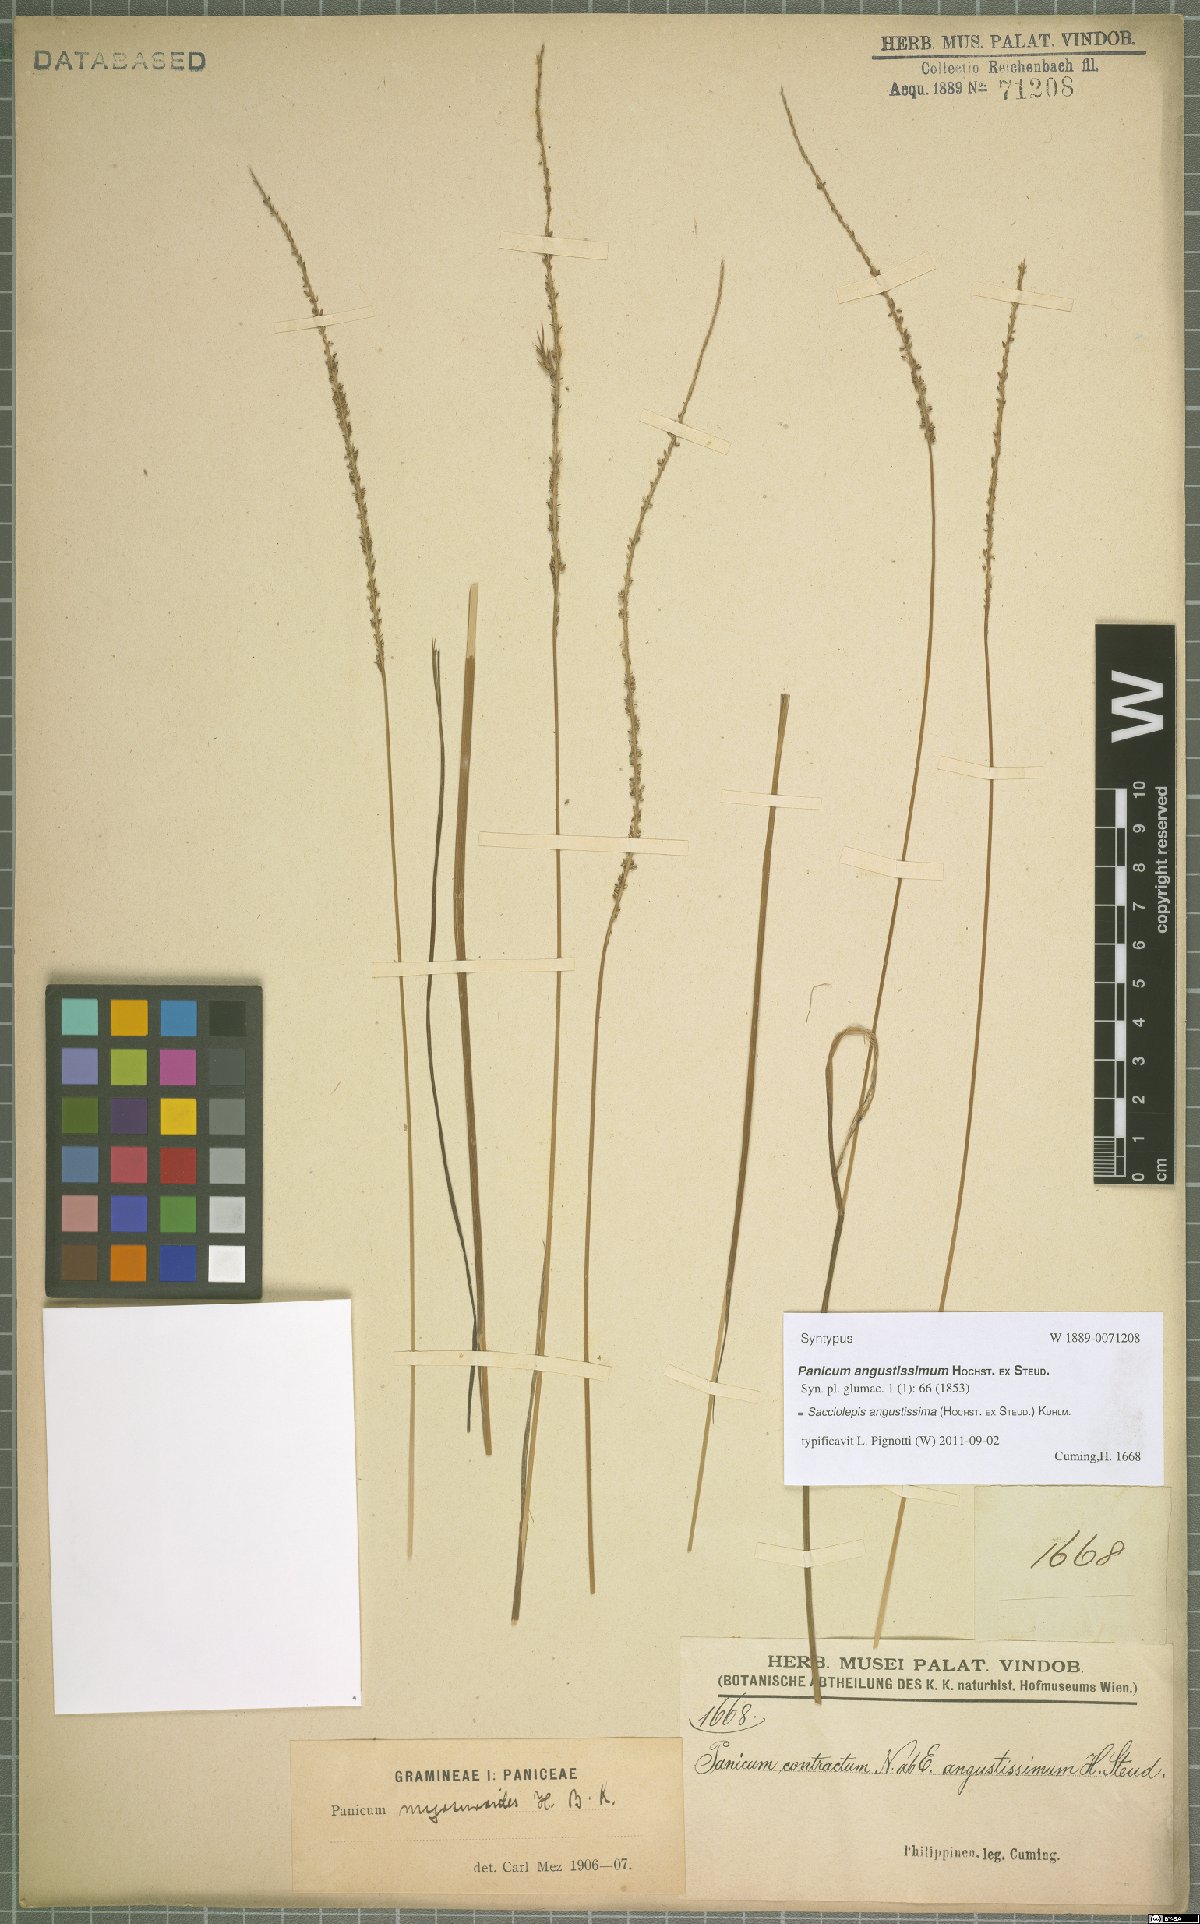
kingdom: Plantae
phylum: Tracheophyta
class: Liliopsida
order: Poales
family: Poaceae
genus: Sacciolepis
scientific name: Sacciolepis angustissima
